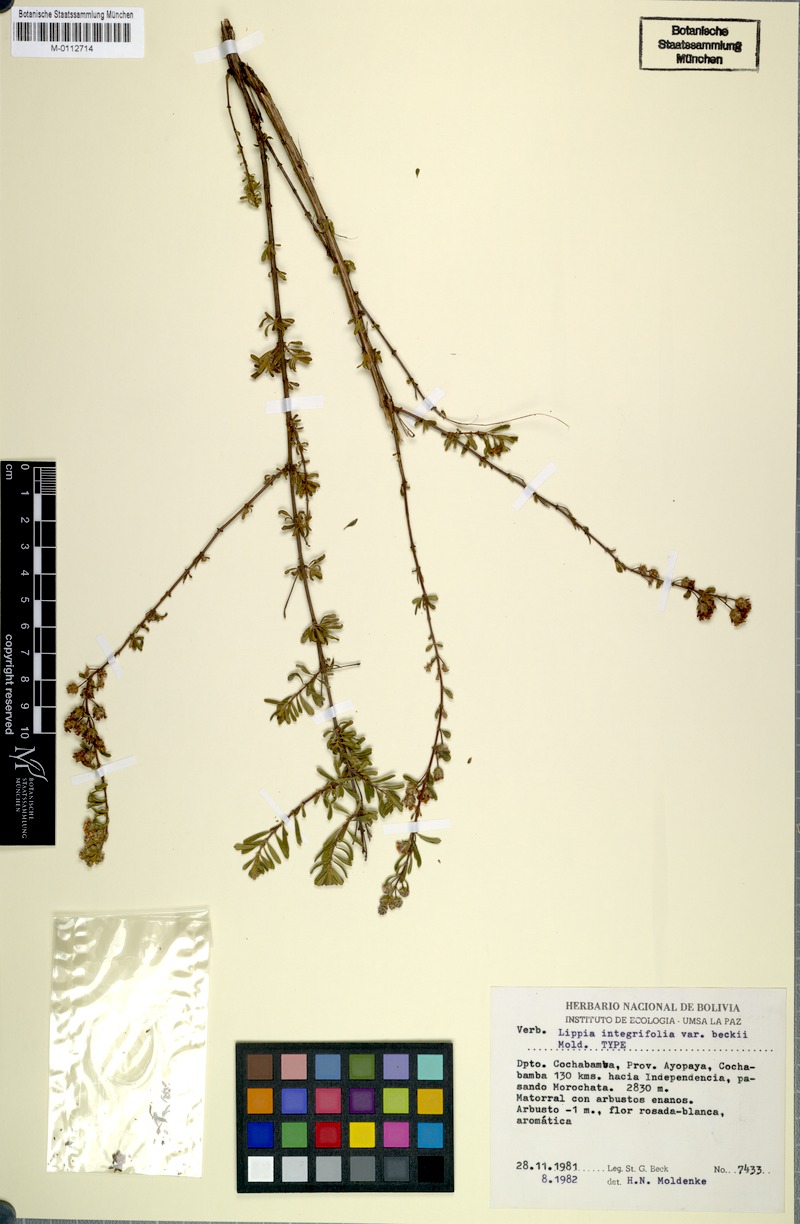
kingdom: Plantae
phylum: Tracheophyta
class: Magnoliopsida
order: Lamiales
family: Verbenaceae
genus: Lippia
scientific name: Lippia integrifolia
